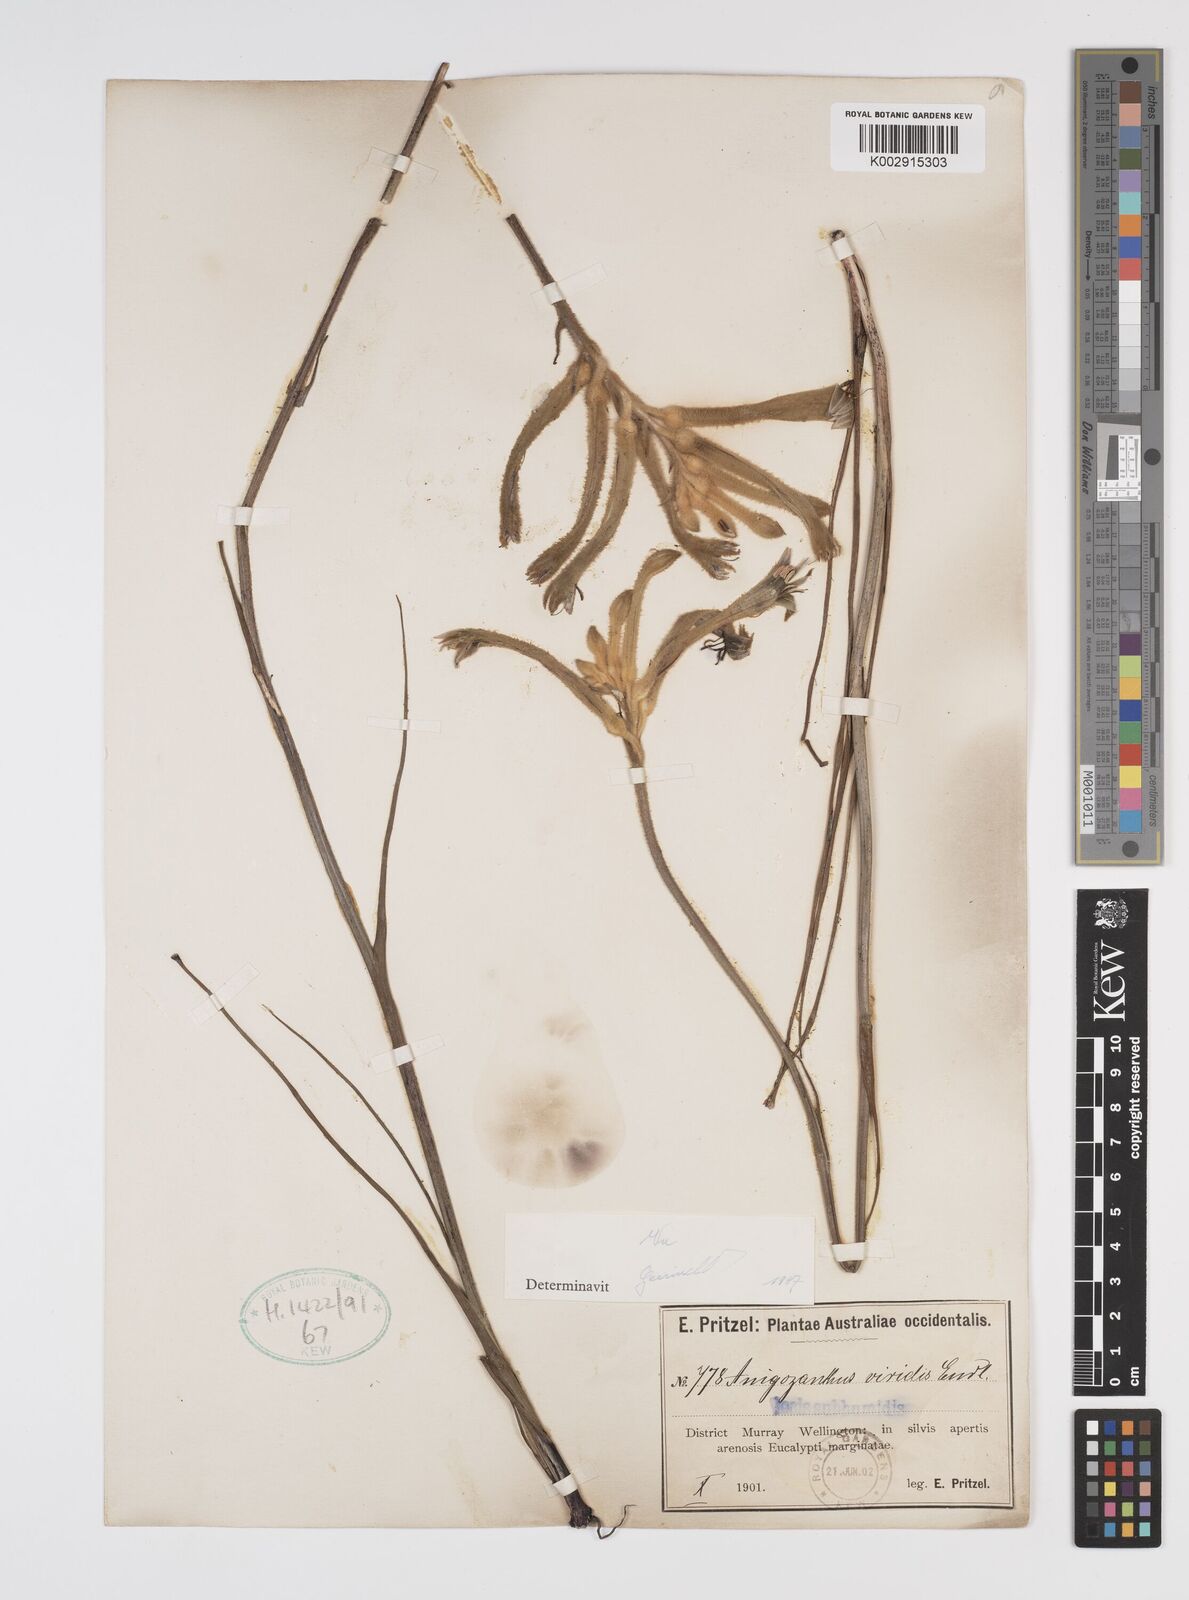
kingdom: Plantae
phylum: Tracheophyta
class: Liliopsida
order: Commelinales
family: Haemodoraceae
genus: Anigozanthos
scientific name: Anigozanthos viridis
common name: Green kangaroo-paw
